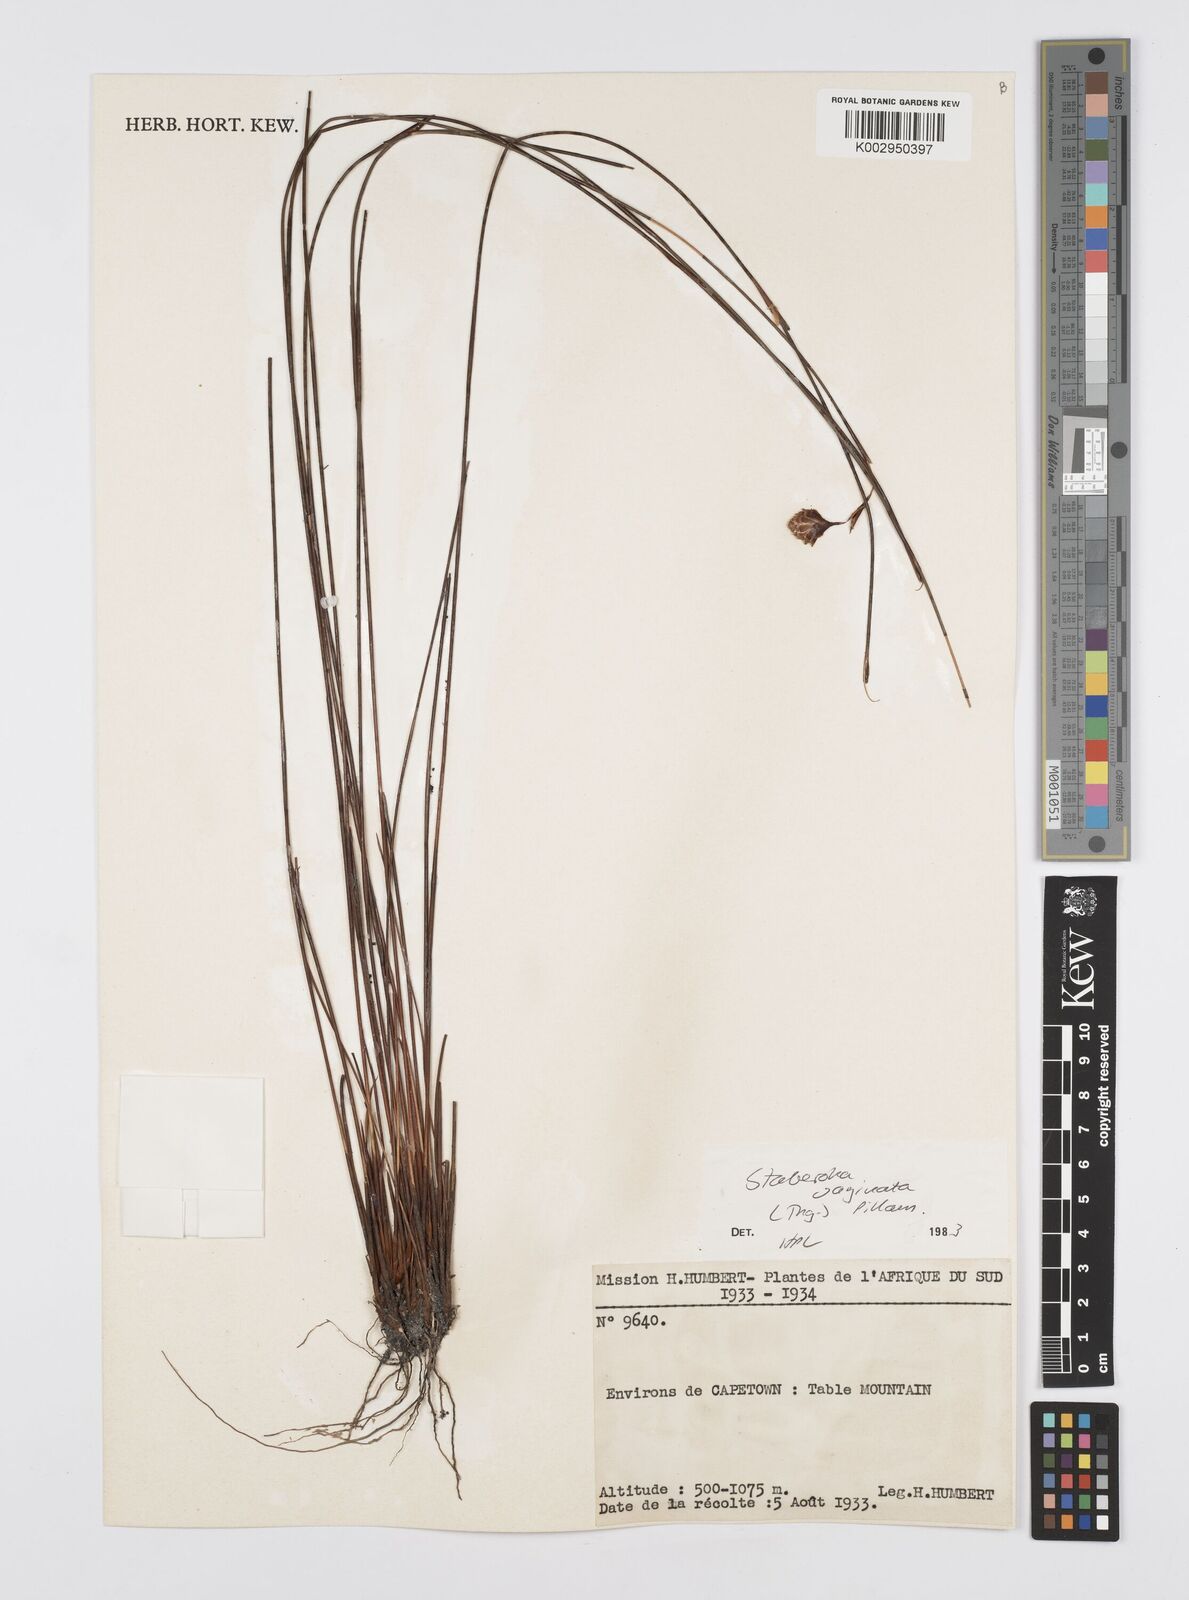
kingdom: Plantae
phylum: Tracheophyta
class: Liliopsida
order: Poales
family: Restionaceae
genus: Staberoha
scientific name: Staberoha vaginata
